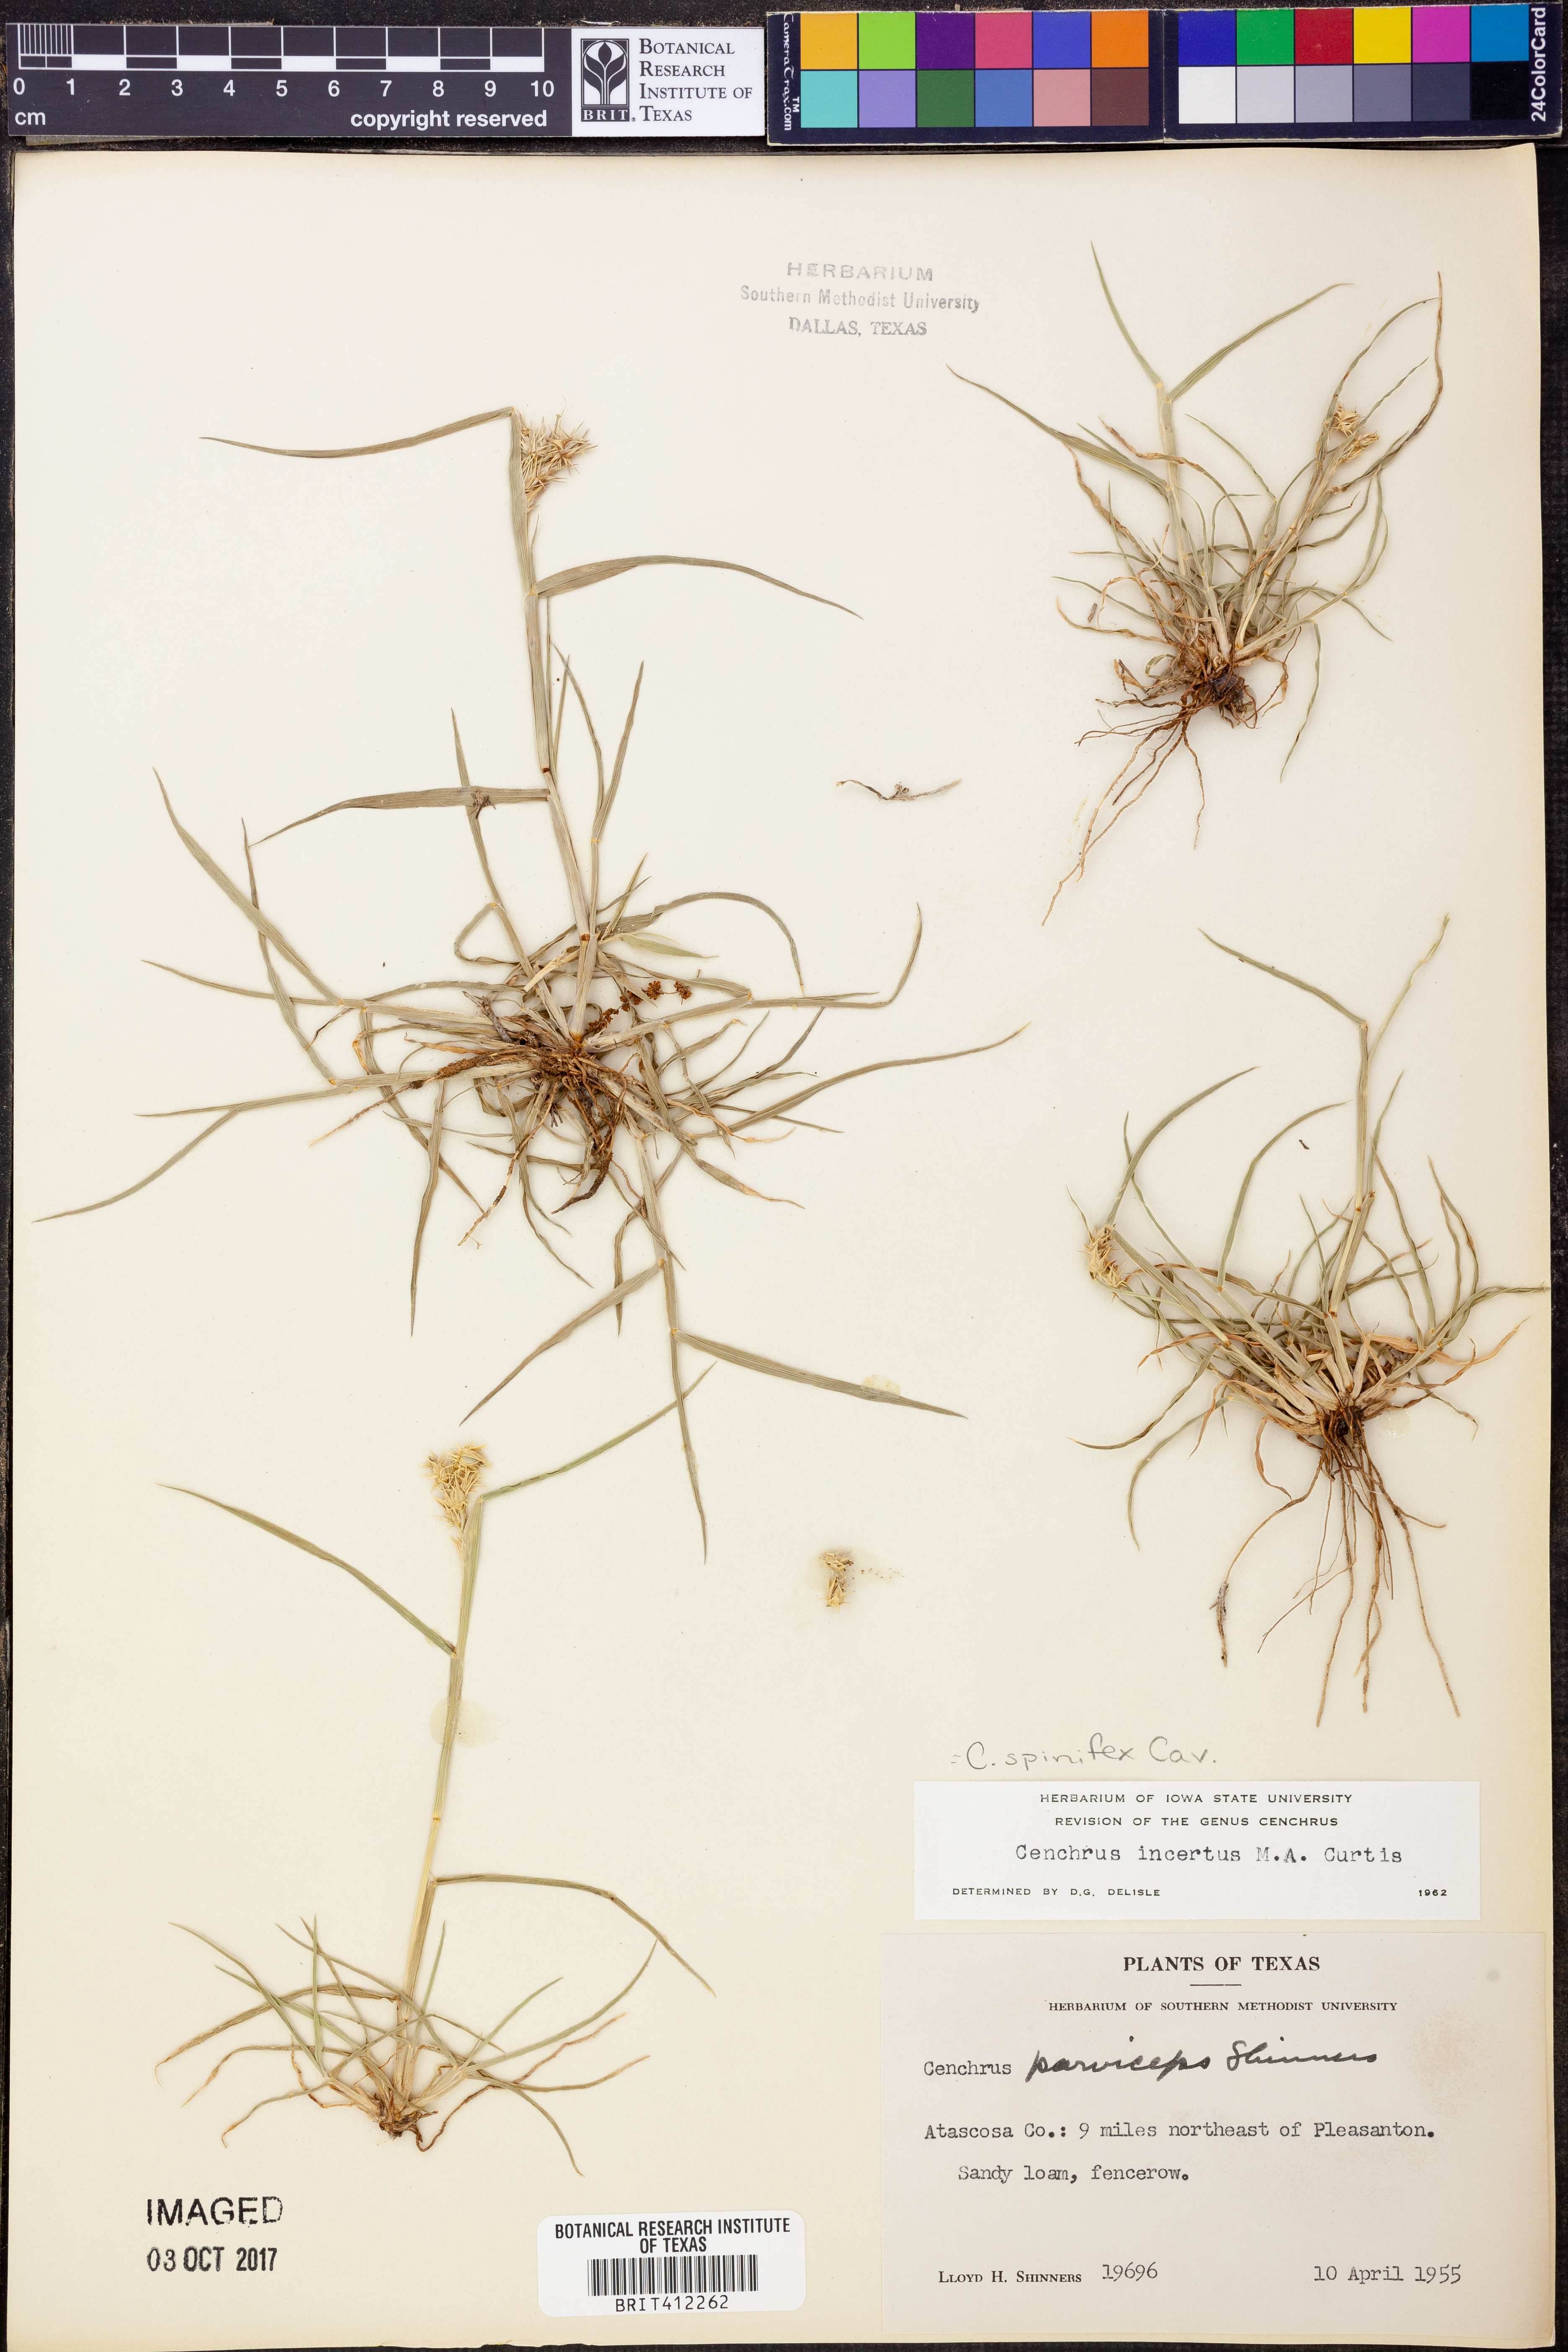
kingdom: Plantae
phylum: Tracheophyta
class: Liliopsida
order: Poales
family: Poaceae
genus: Cenchrus
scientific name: Cenchrus spinifex
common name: Coast sandbur
